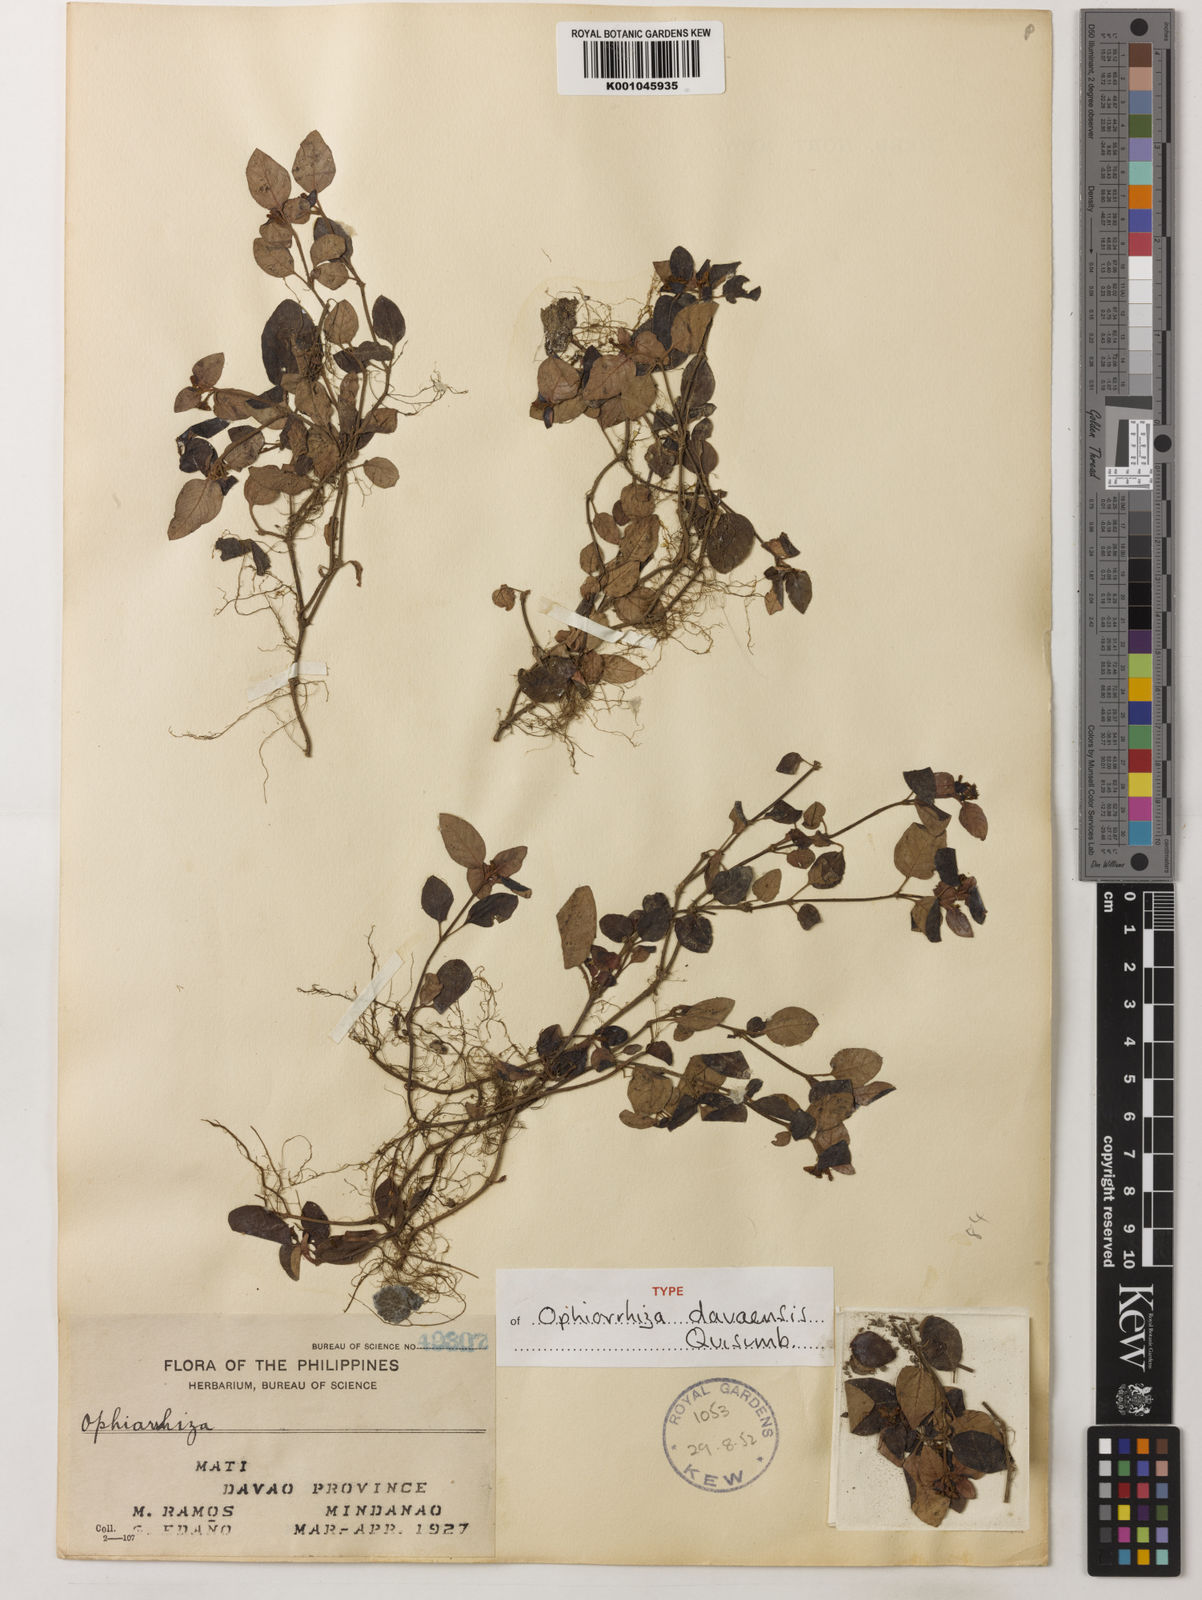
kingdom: Plantae
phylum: Tracheophyta
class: Magnoliopsida
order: Gentianales
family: Rubiaceae
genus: Ophiorrhiza
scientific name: Ophiorrhiza davaensis
